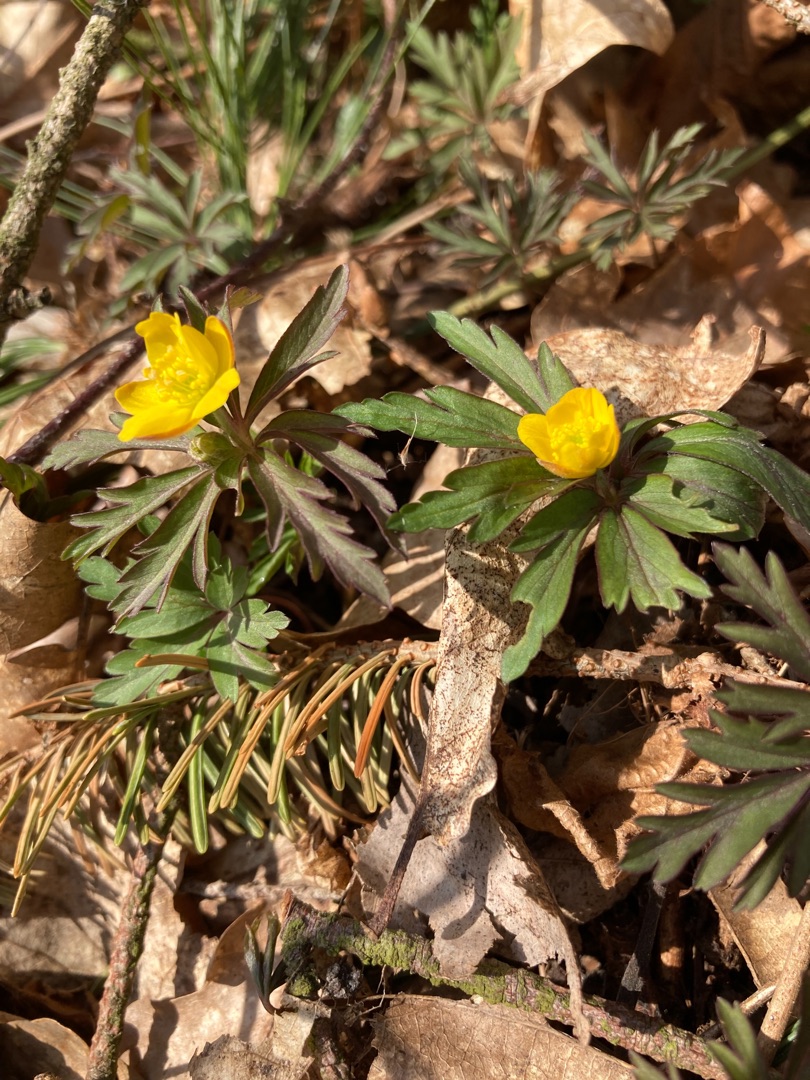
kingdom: Plantae
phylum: Tracheophyta
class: Magnoliopsida
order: Ranunculales
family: Ranunculaceae
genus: Anemone
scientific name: Anemone ranunculoides
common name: Gul anemone
